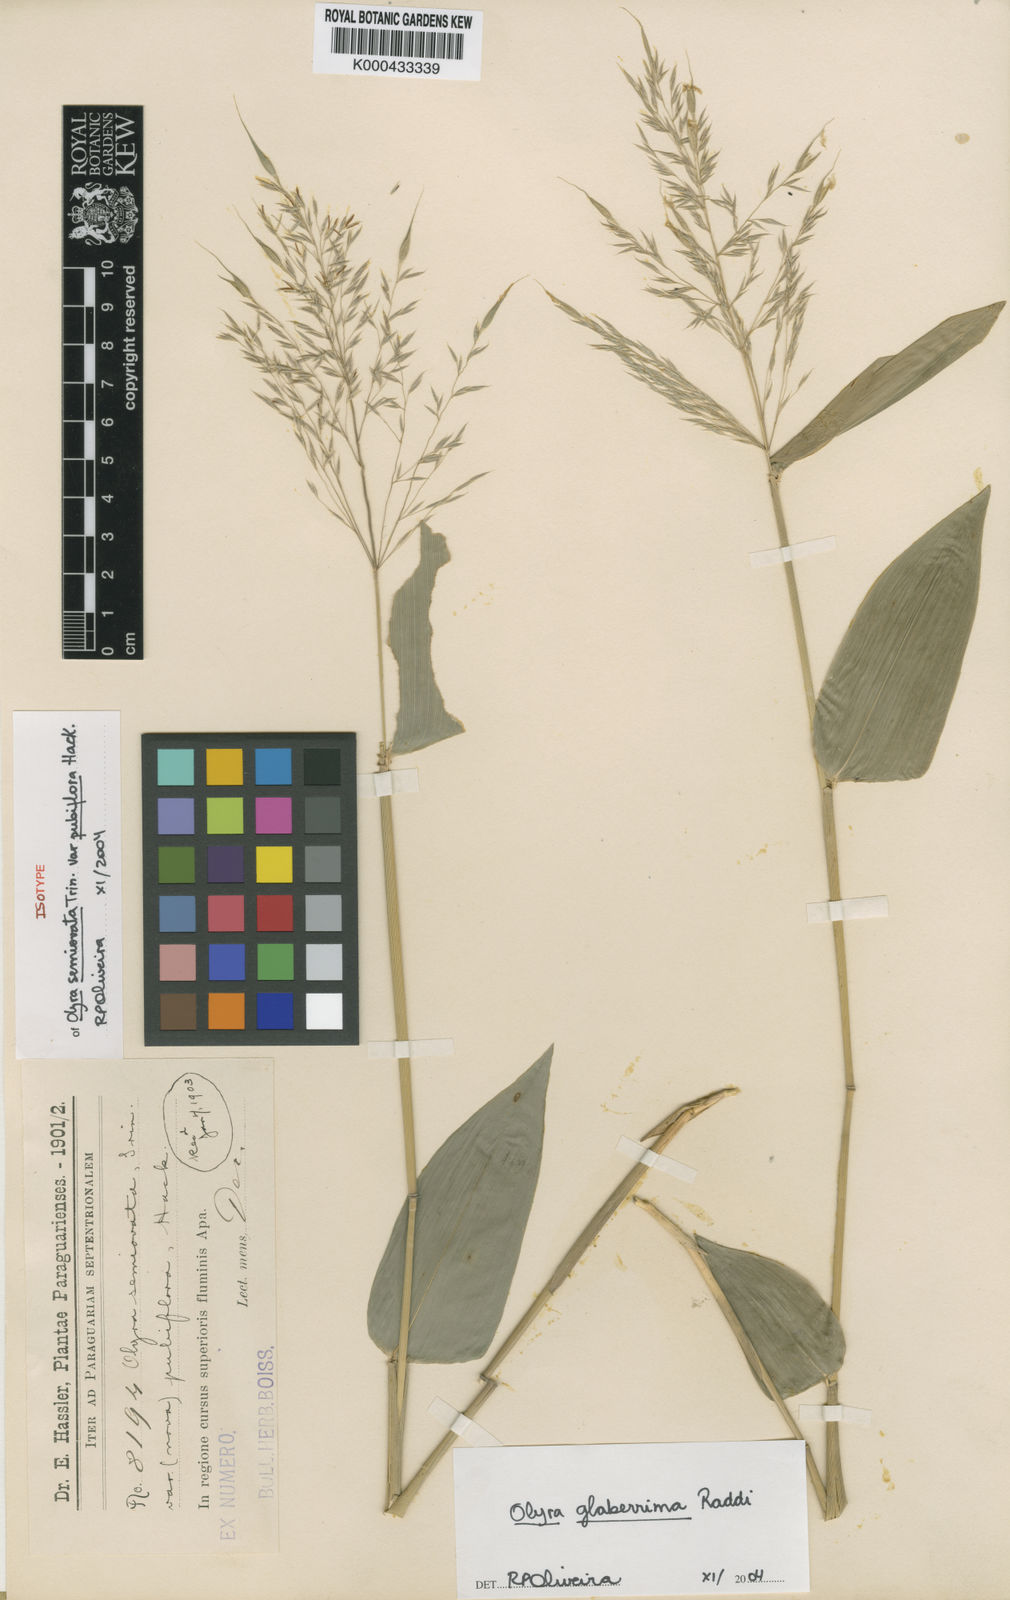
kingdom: Plantae
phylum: Tracheophyta
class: Liliopsida
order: Poales
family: Poaceae
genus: Olyra
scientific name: Olyra glaberrima
